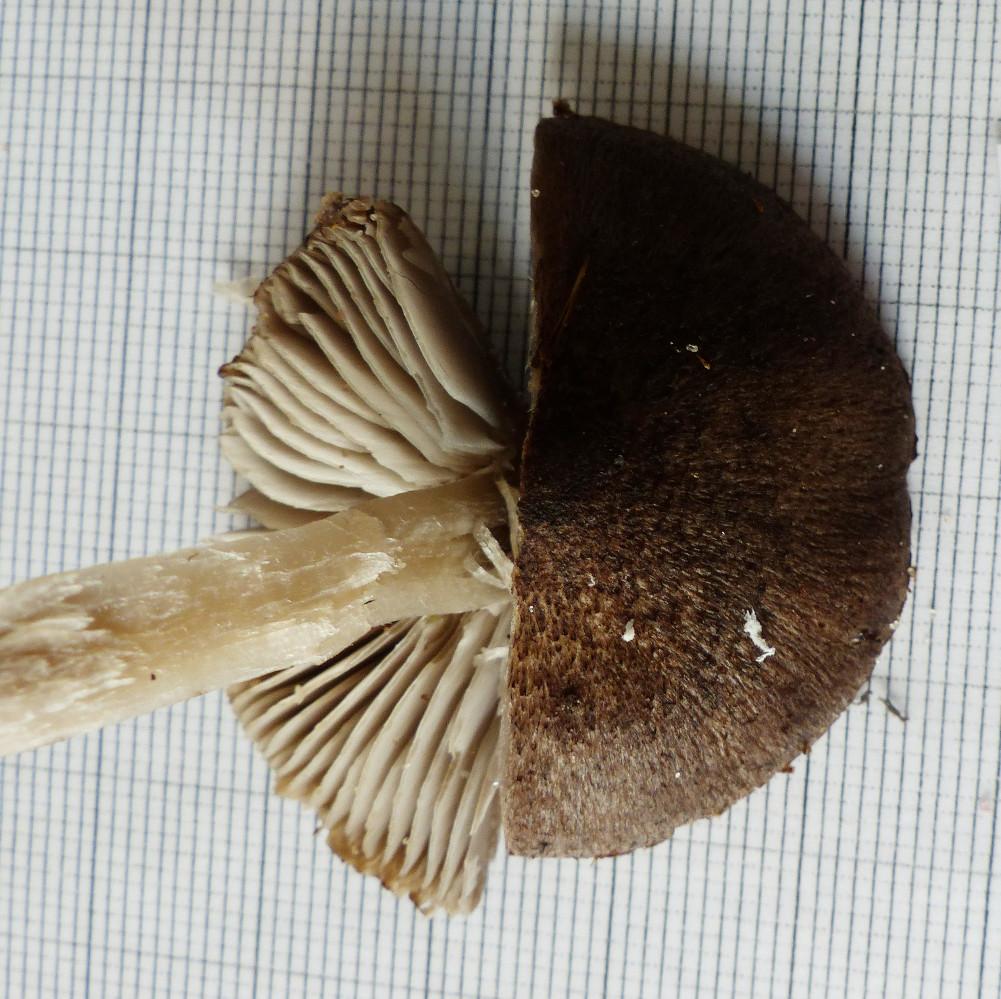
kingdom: Fungi
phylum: Basidiomycota
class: Agaricomycetes
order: Agaricales
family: Tricholomataceae
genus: Tricholoma
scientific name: Tricholoma terreum
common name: jordfarvet ridderhat
